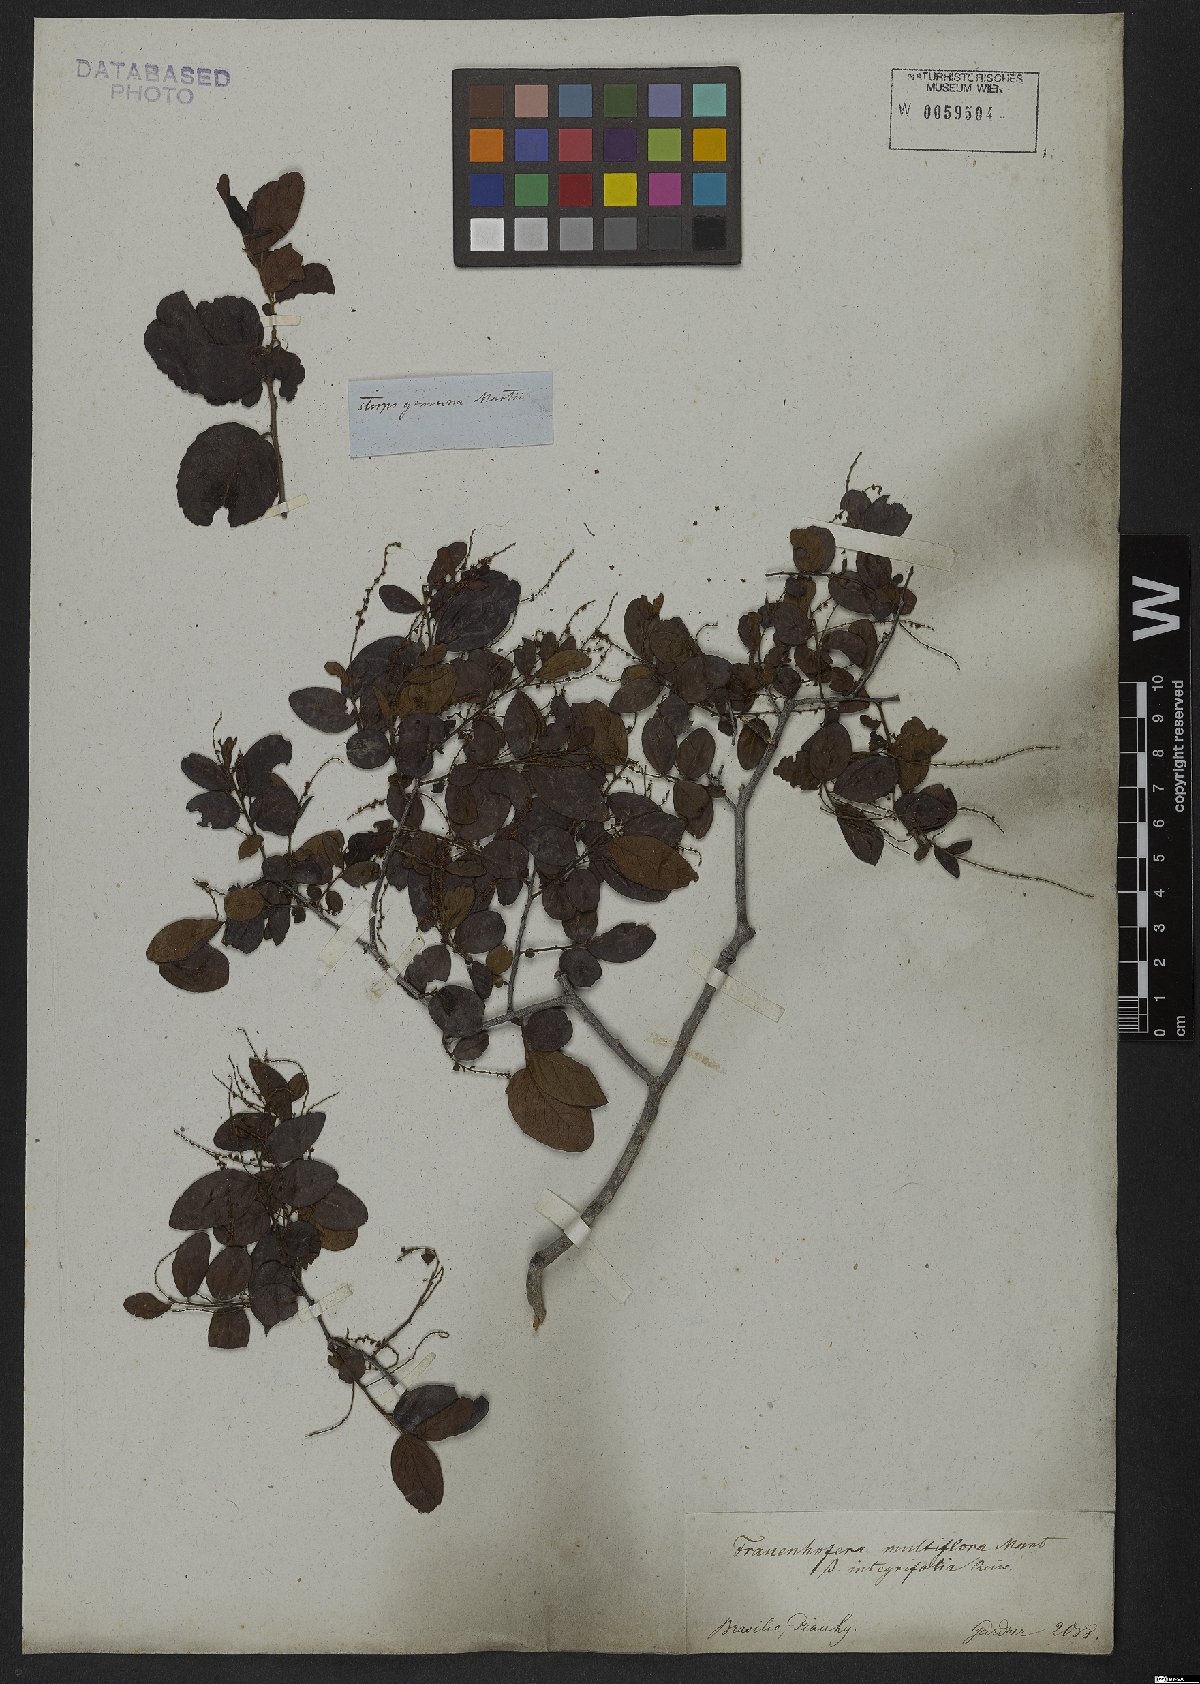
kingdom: Plantae
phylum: Tracheophyta
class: Magnoliopsida
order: Celastrales
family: Celastraceae
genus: Fraunhofera
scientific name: Fraunhofera multiflora
